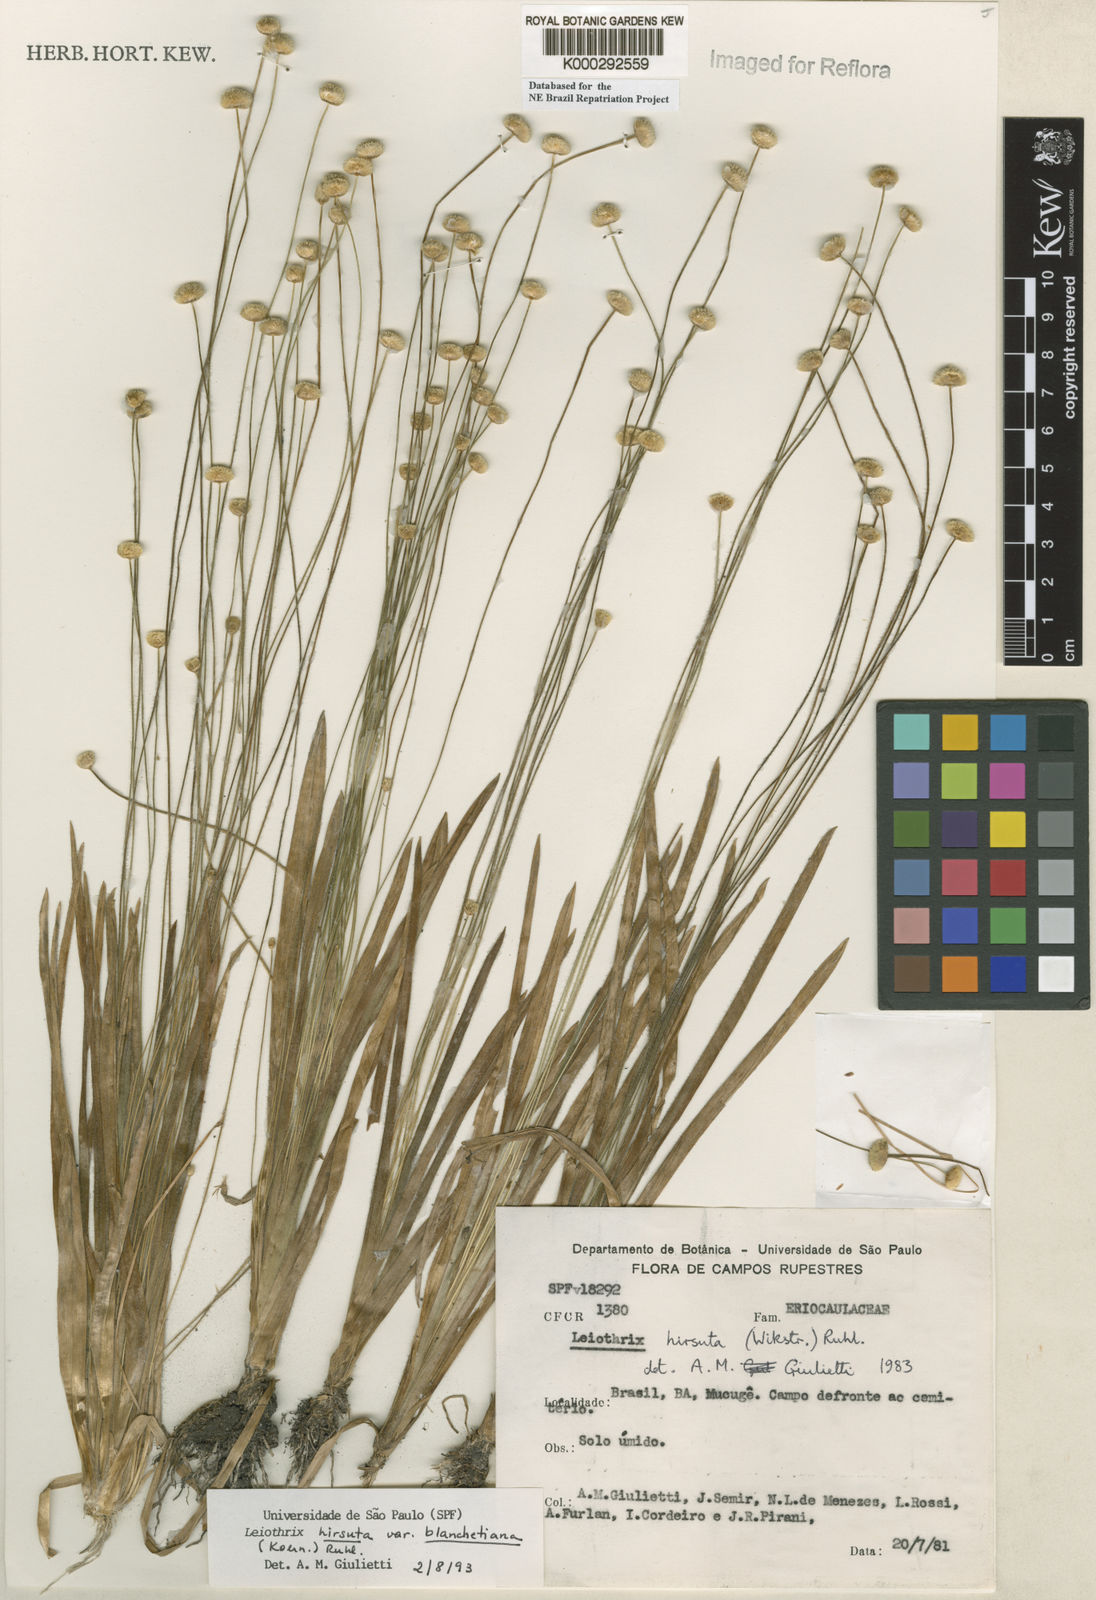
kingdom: Plantae
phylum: Tracheophyta
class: Liliopsida
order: Poales
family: Eriocaulaceae
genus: Leiothrix
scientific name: Leiothrix hirsuta
